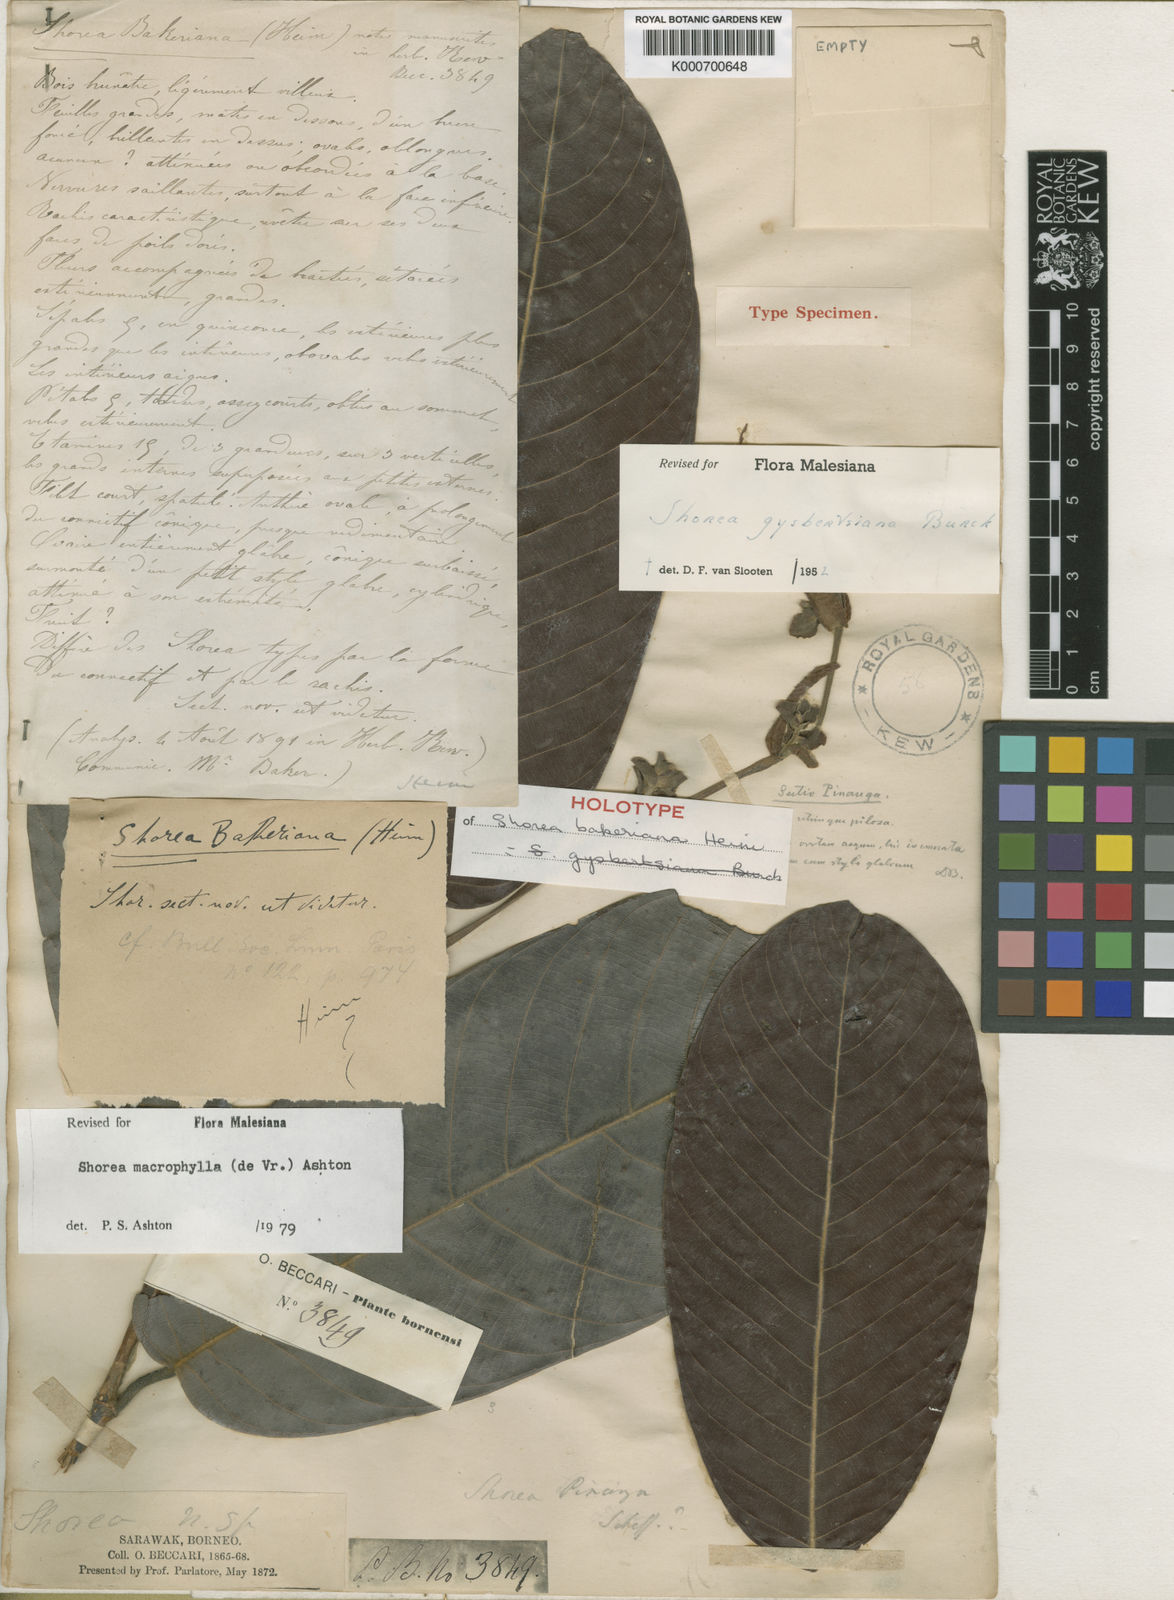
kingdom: Plantae
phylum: Tracheophyta
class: Magnoliopsida
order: Malvales
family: Dipterocarpaceae
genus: Shorea
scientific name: Shorea macrophylla
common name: Light red meranti
